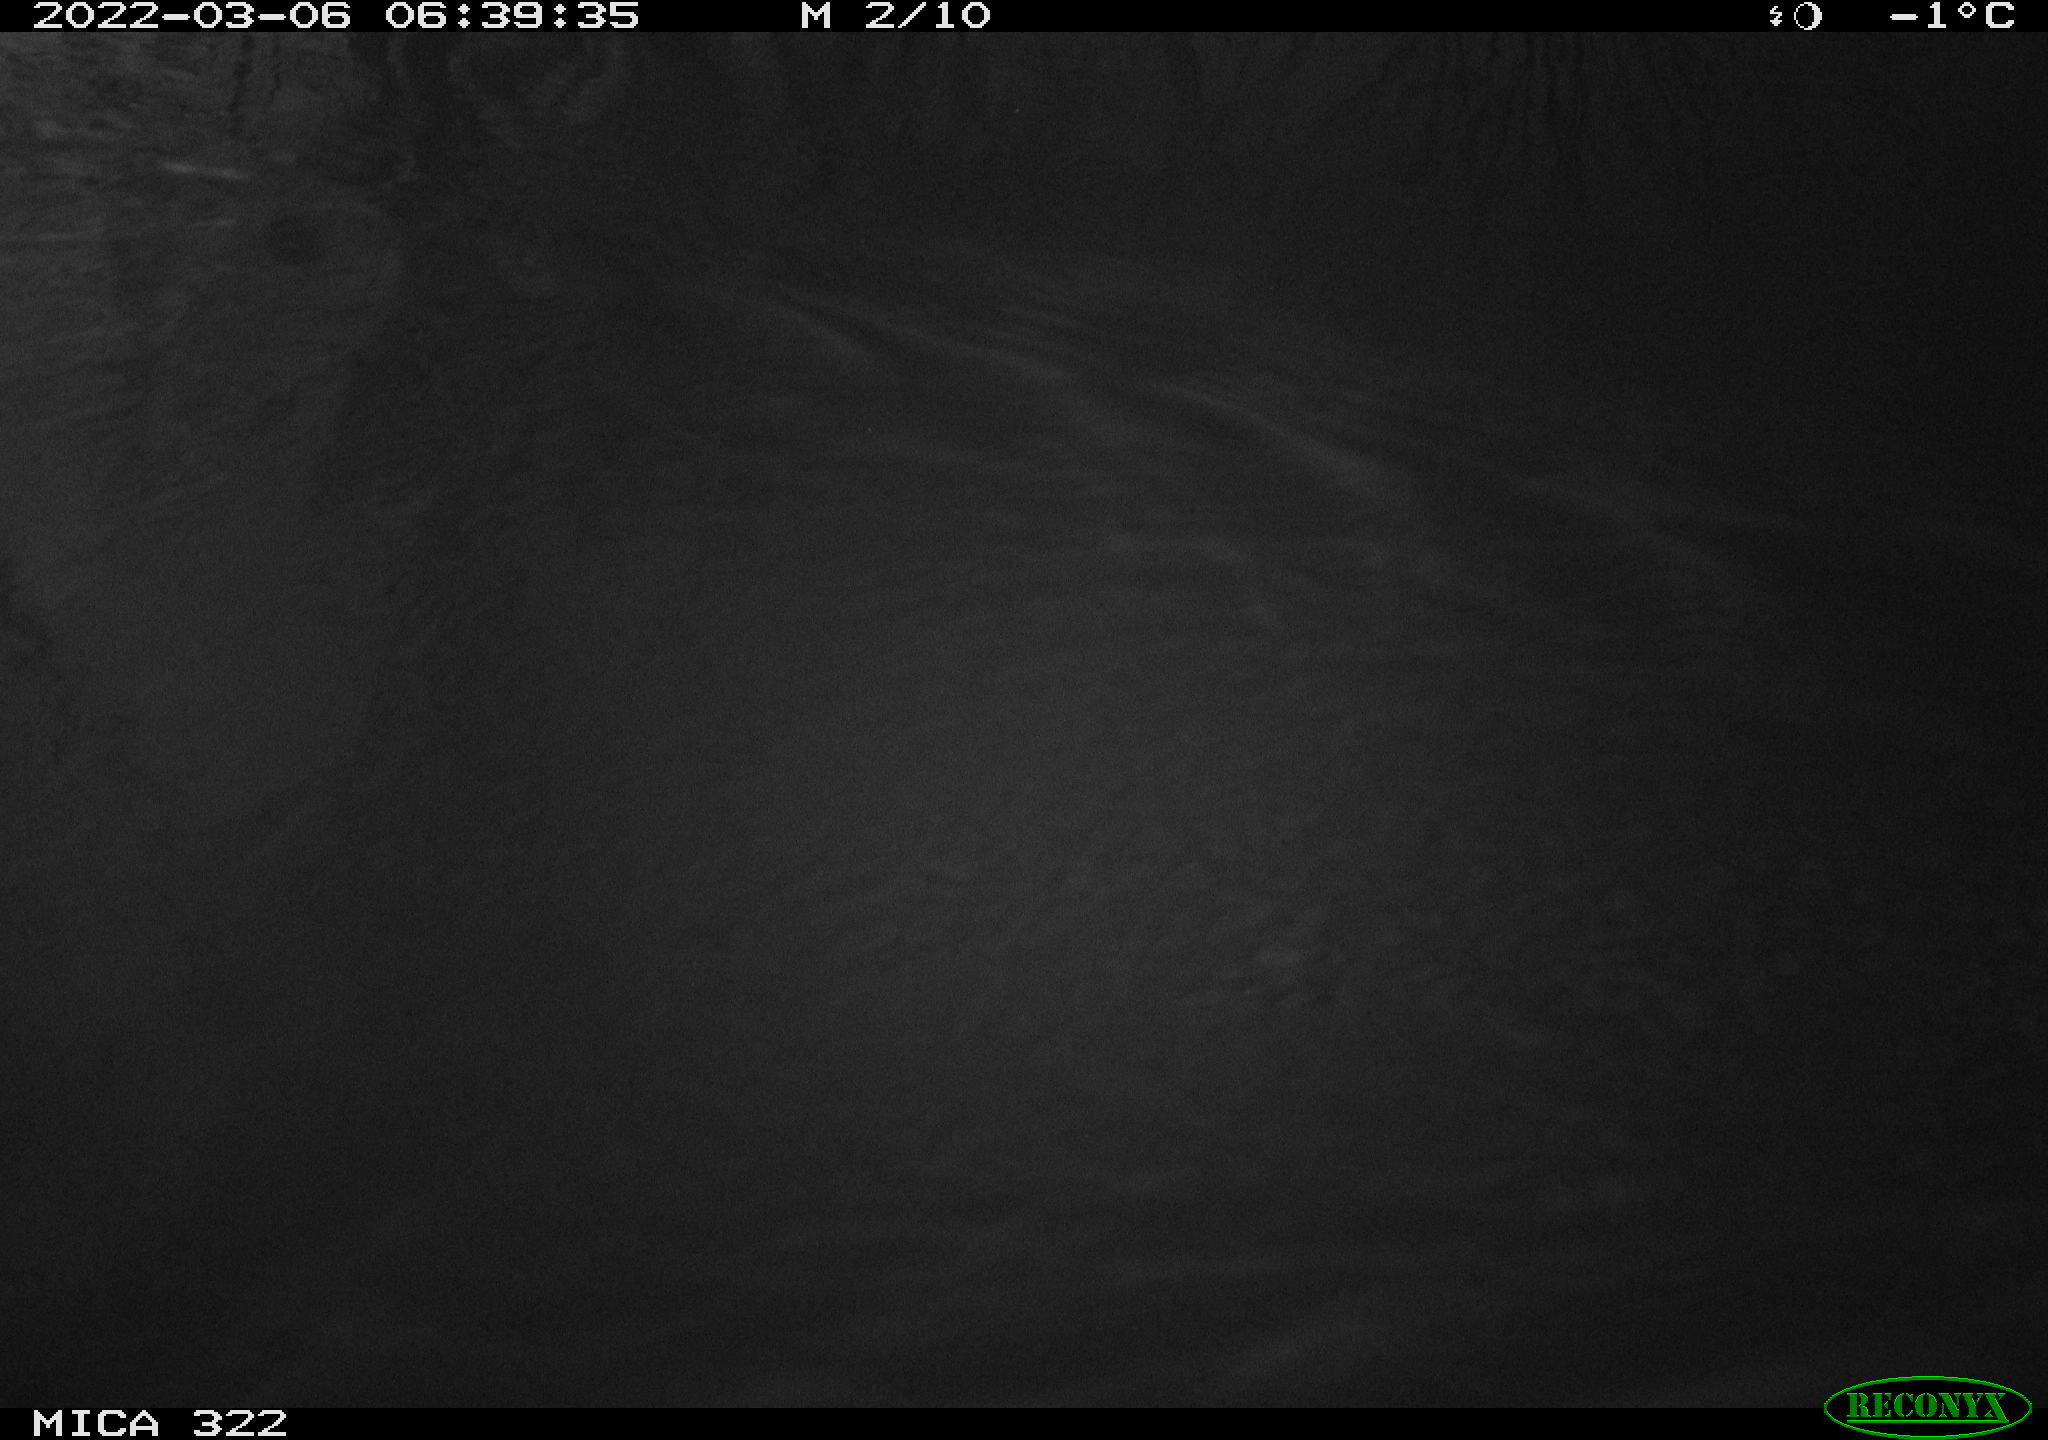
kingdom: Animalia
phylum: Chordata
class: Aves
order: Gruiformes
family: Rallidae
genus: Gallinula
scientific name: Gallinula chloropus
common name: Common moorhen
